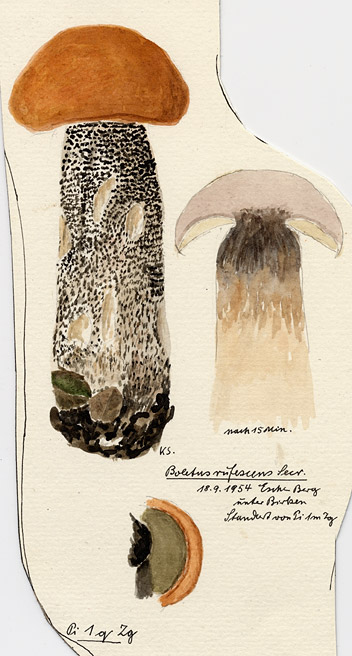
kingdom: Plantae
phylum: Tracheophyta
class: Magnoliopsida
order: Fagales
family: Betulaceae
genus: Betula
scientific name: Betula
